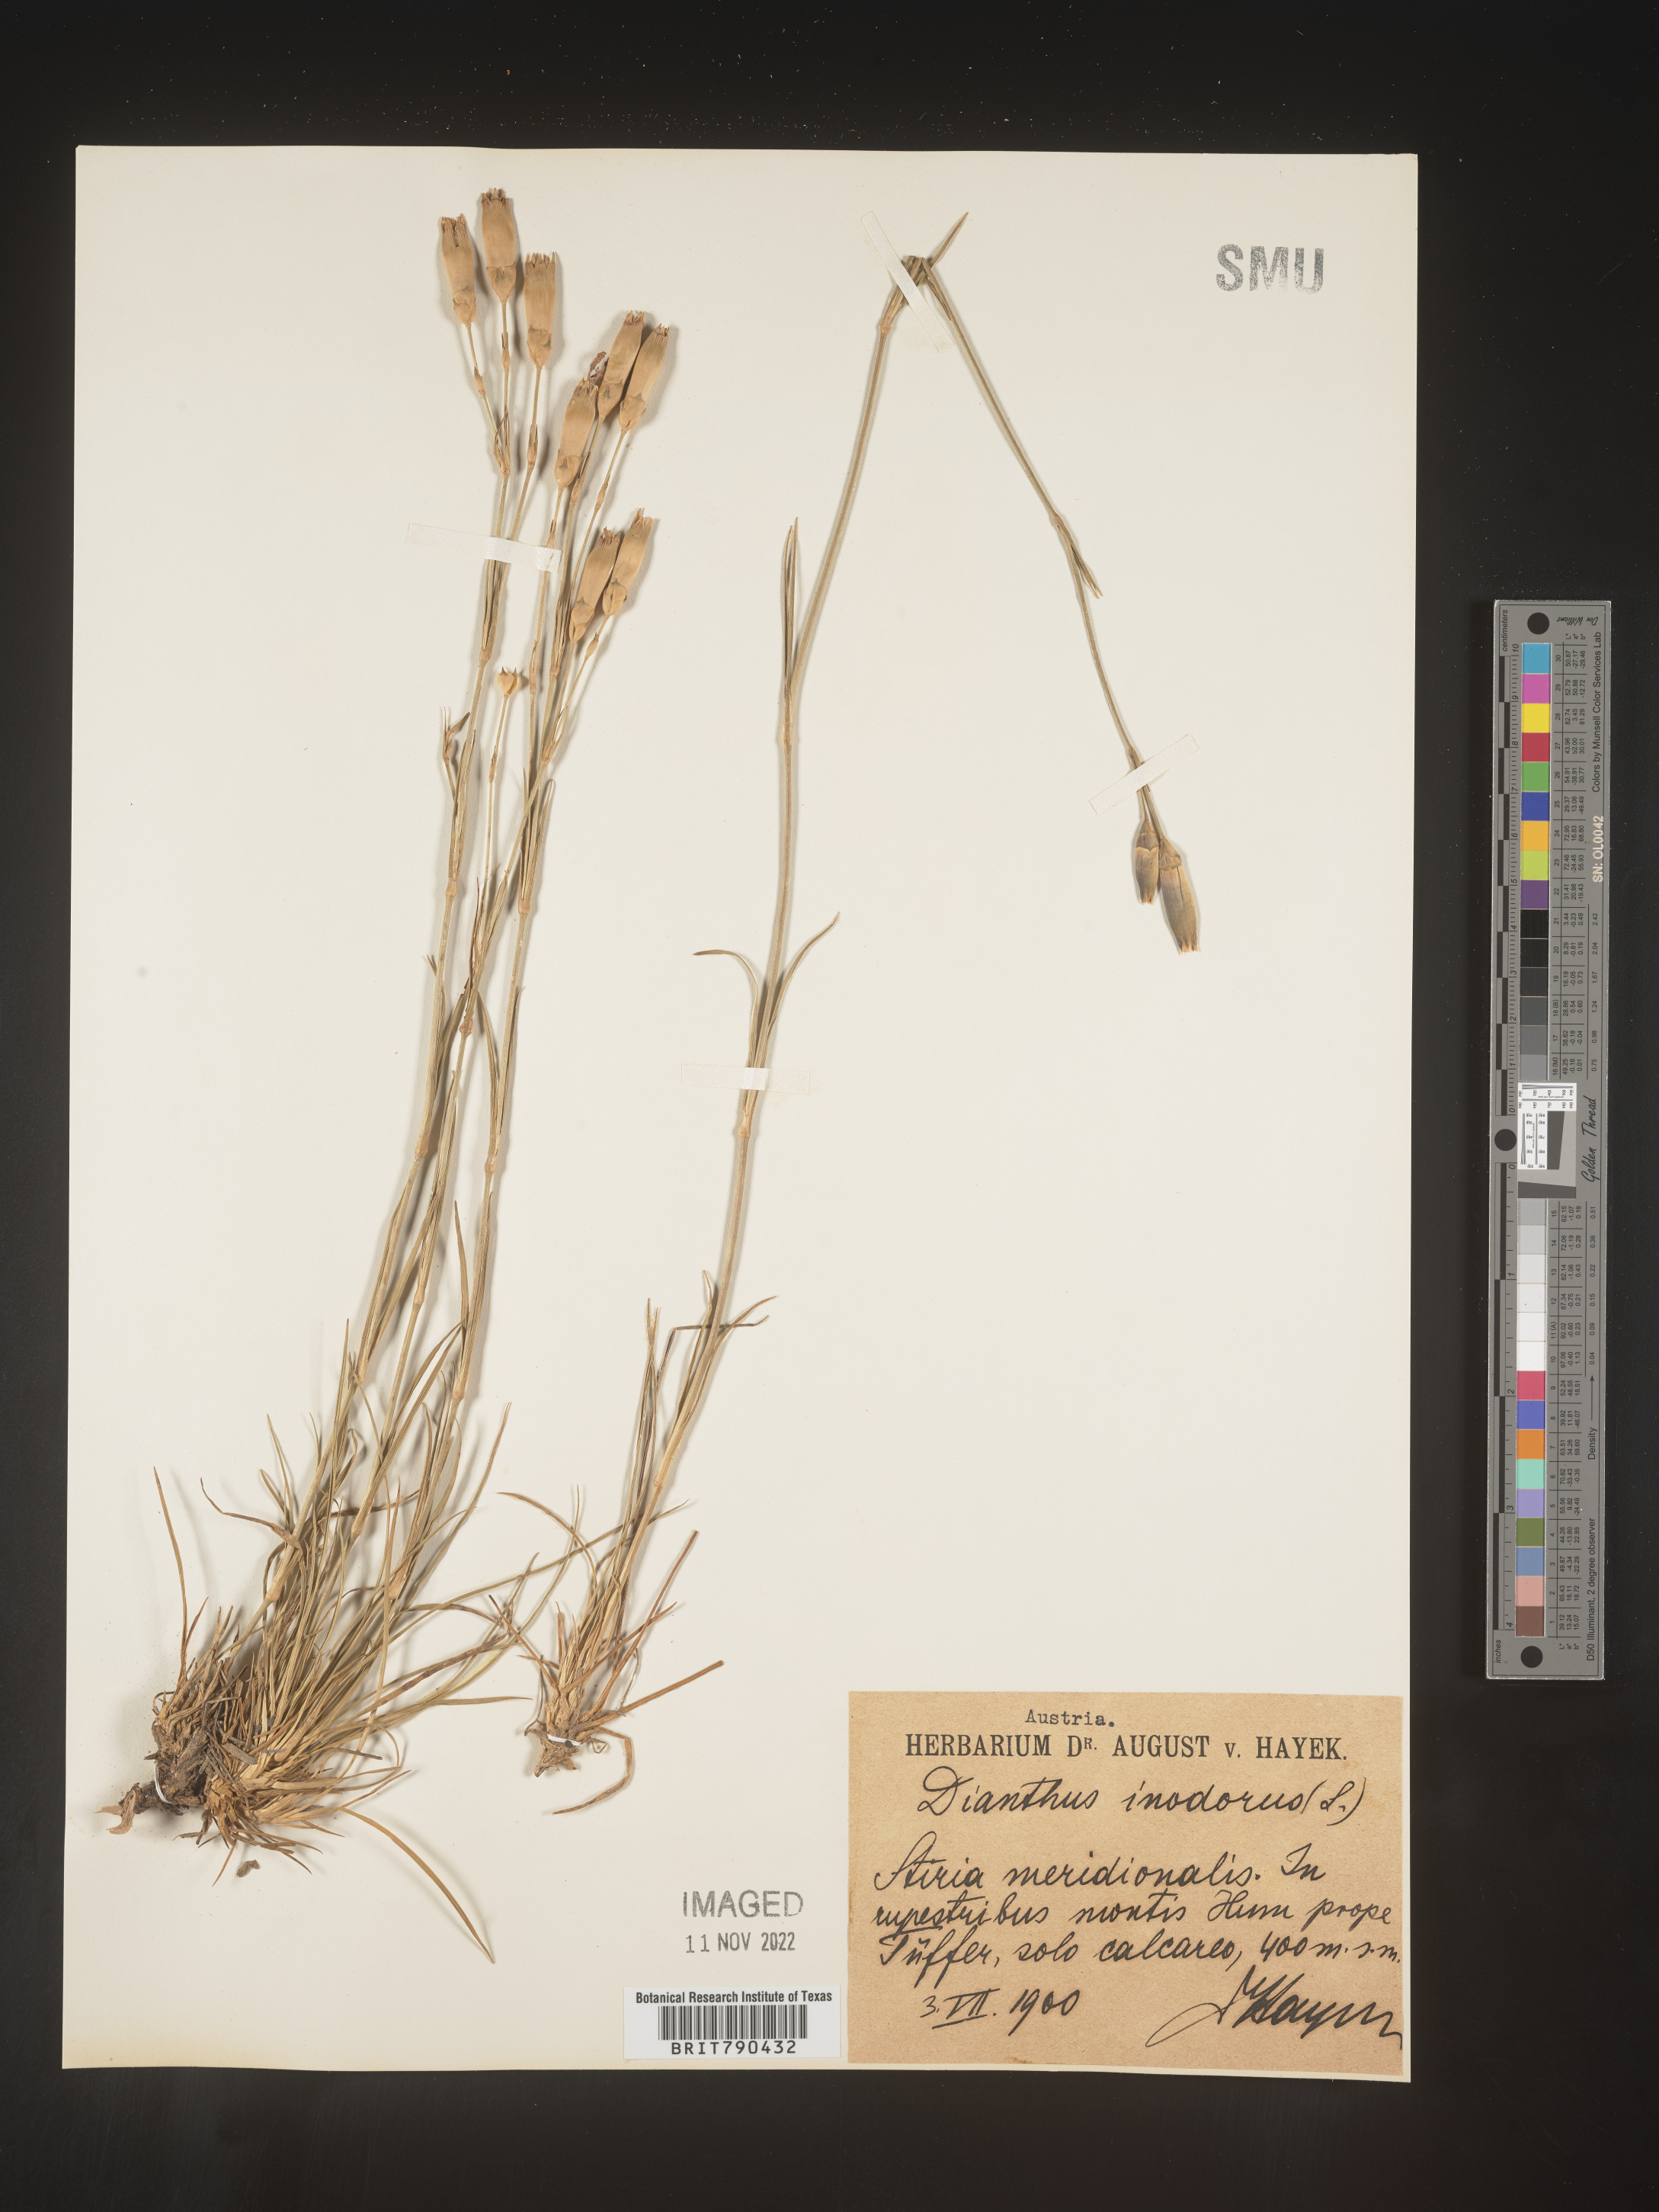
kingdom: Plantae
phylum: Tracheophyta
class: Magnoliopsida
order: Caryophyllales
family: Caryophyllaceae
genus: Dianthus
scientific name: Dianthus
